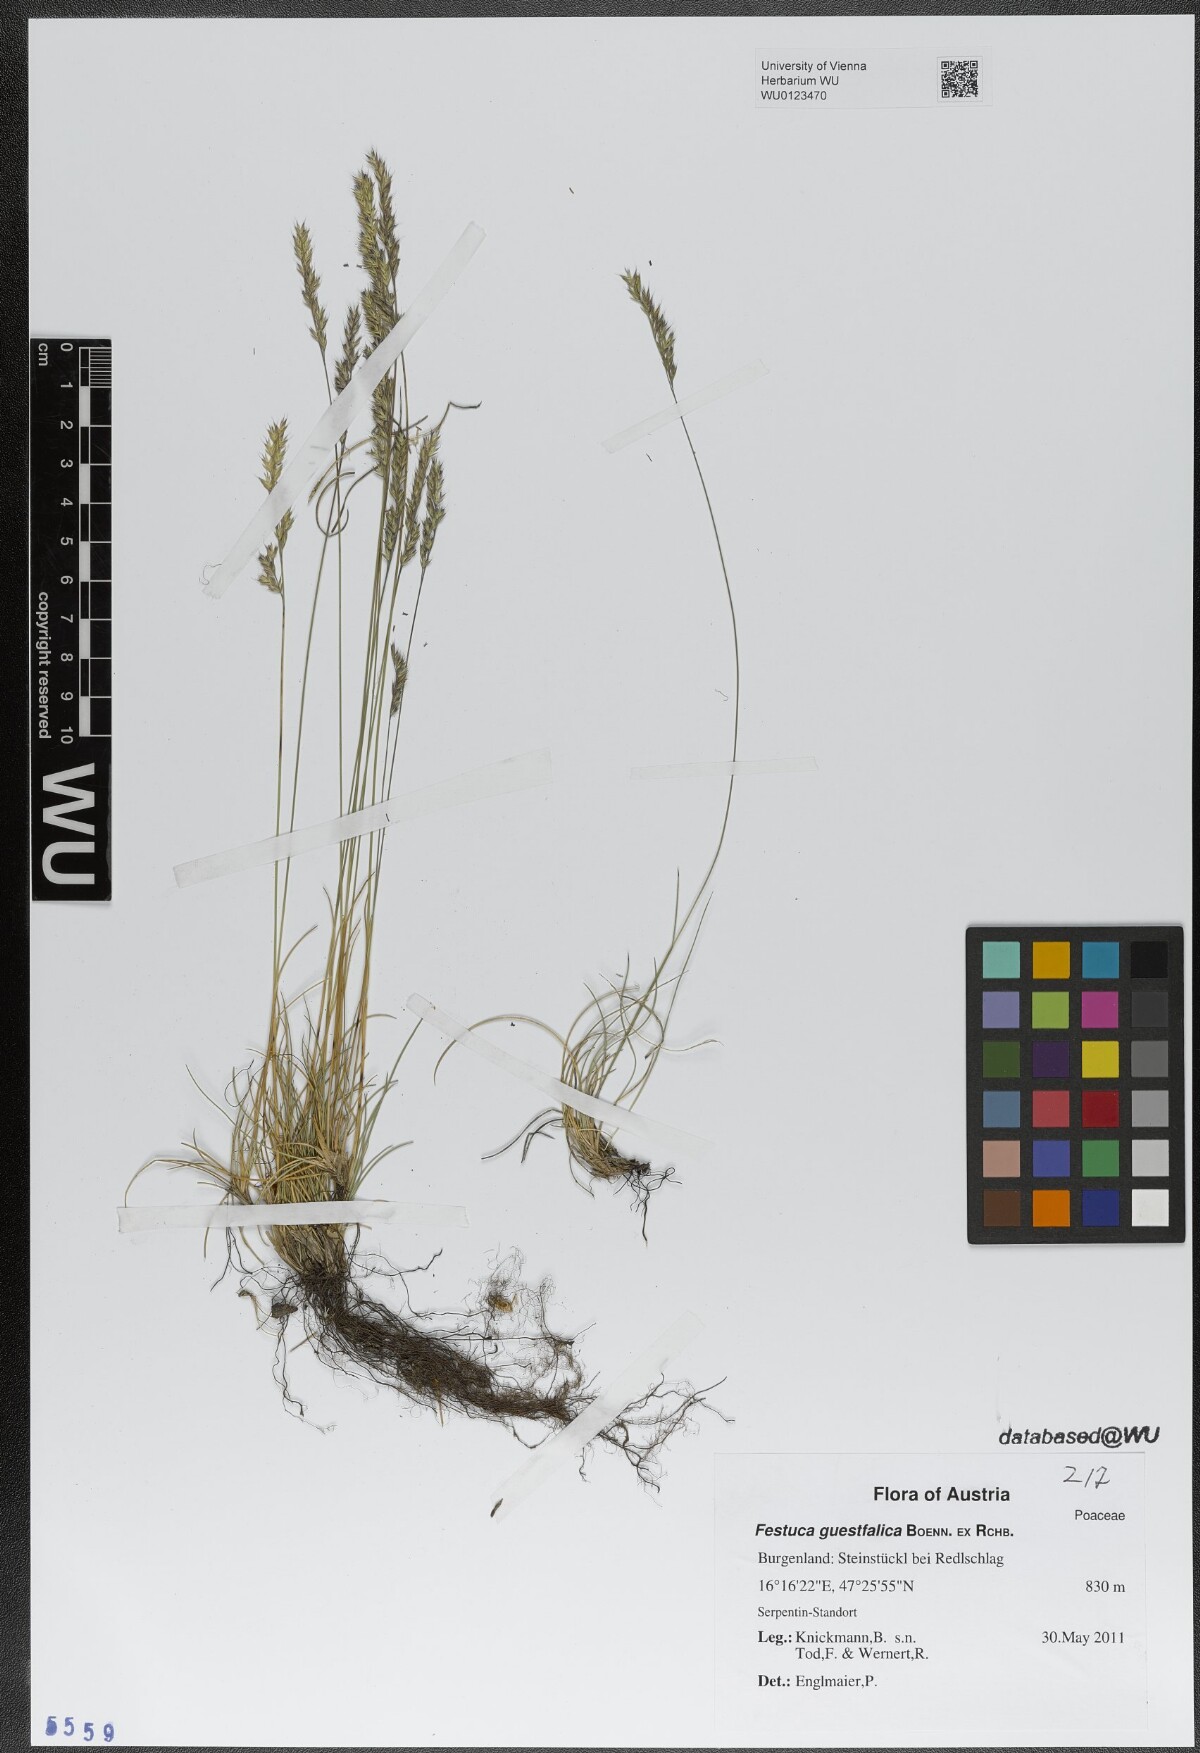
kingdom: Plantae
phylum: Tracheophyta
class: Liliopsida
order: Poales
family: Poaceae
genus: Festuca
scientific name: Festuca guestfalica
